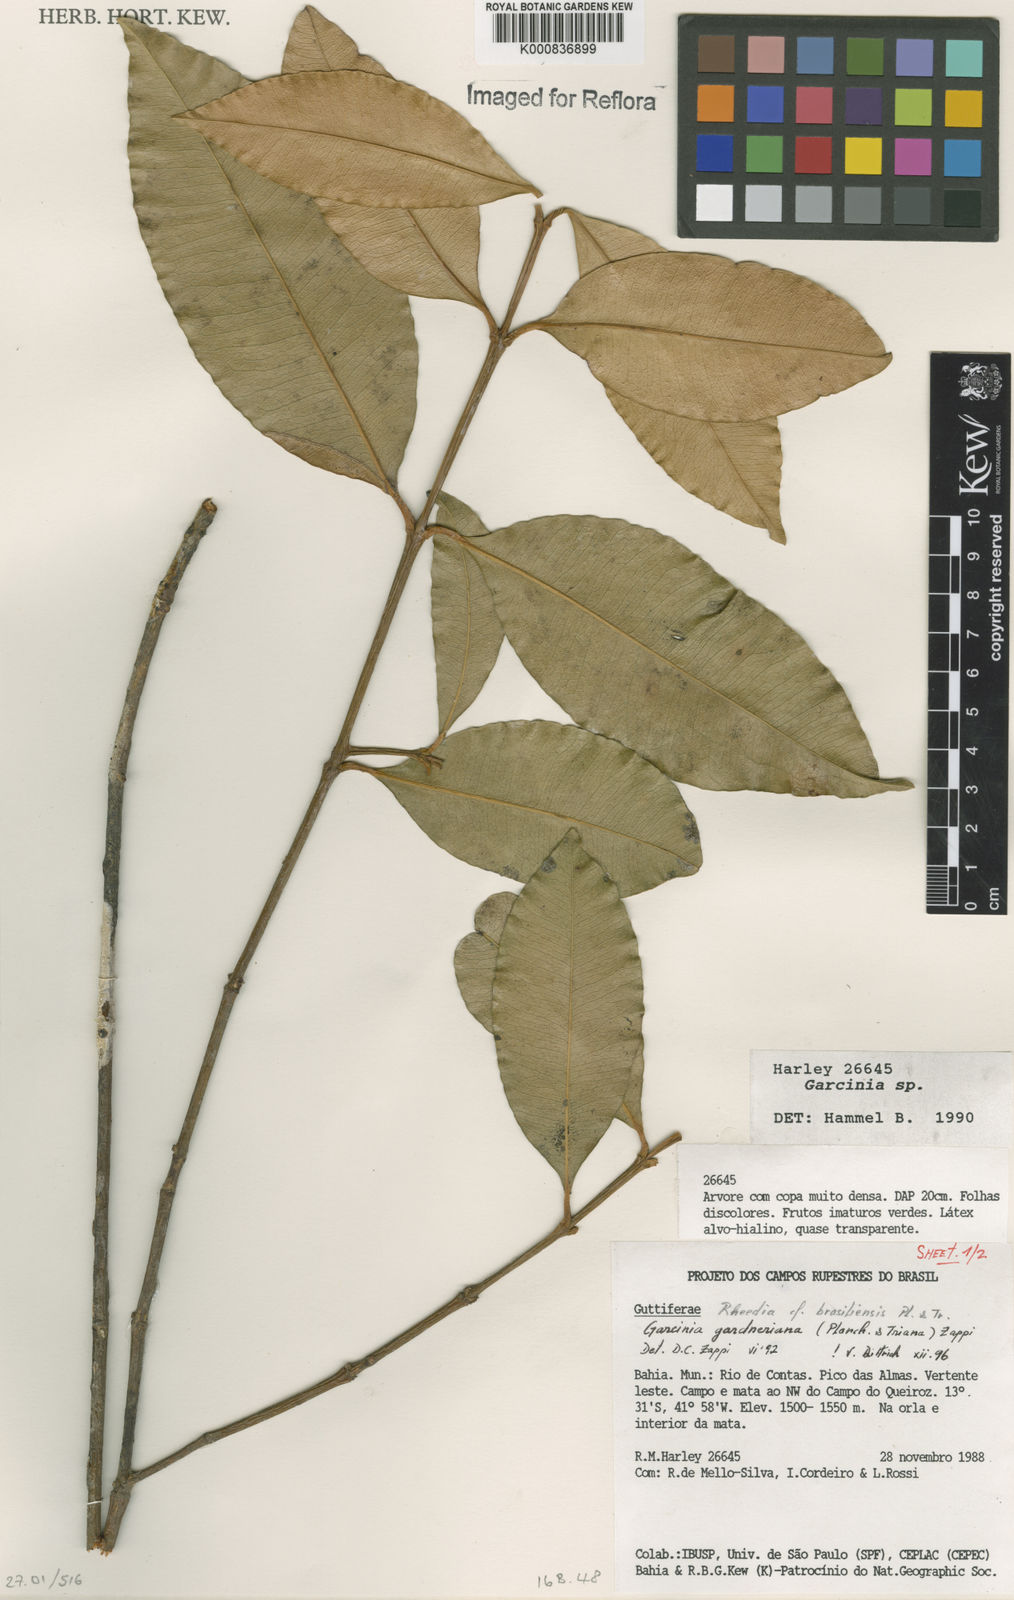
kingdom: Plantae
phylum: Tracheophyta
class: Magnoliopsida
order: Malpighiales
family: Clusiaceae
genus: Garcinia
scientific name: Garcinia gardneriana
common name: Achacha
